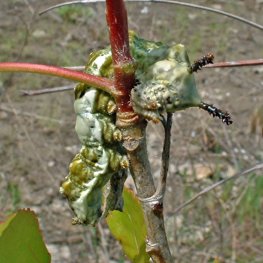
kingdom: Animalia
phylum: Arthropoda
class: Insecta
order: Lepidoptera
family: Nymphalidae
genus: Limenitis
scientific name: Limenitis archippus
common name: Viceroy
